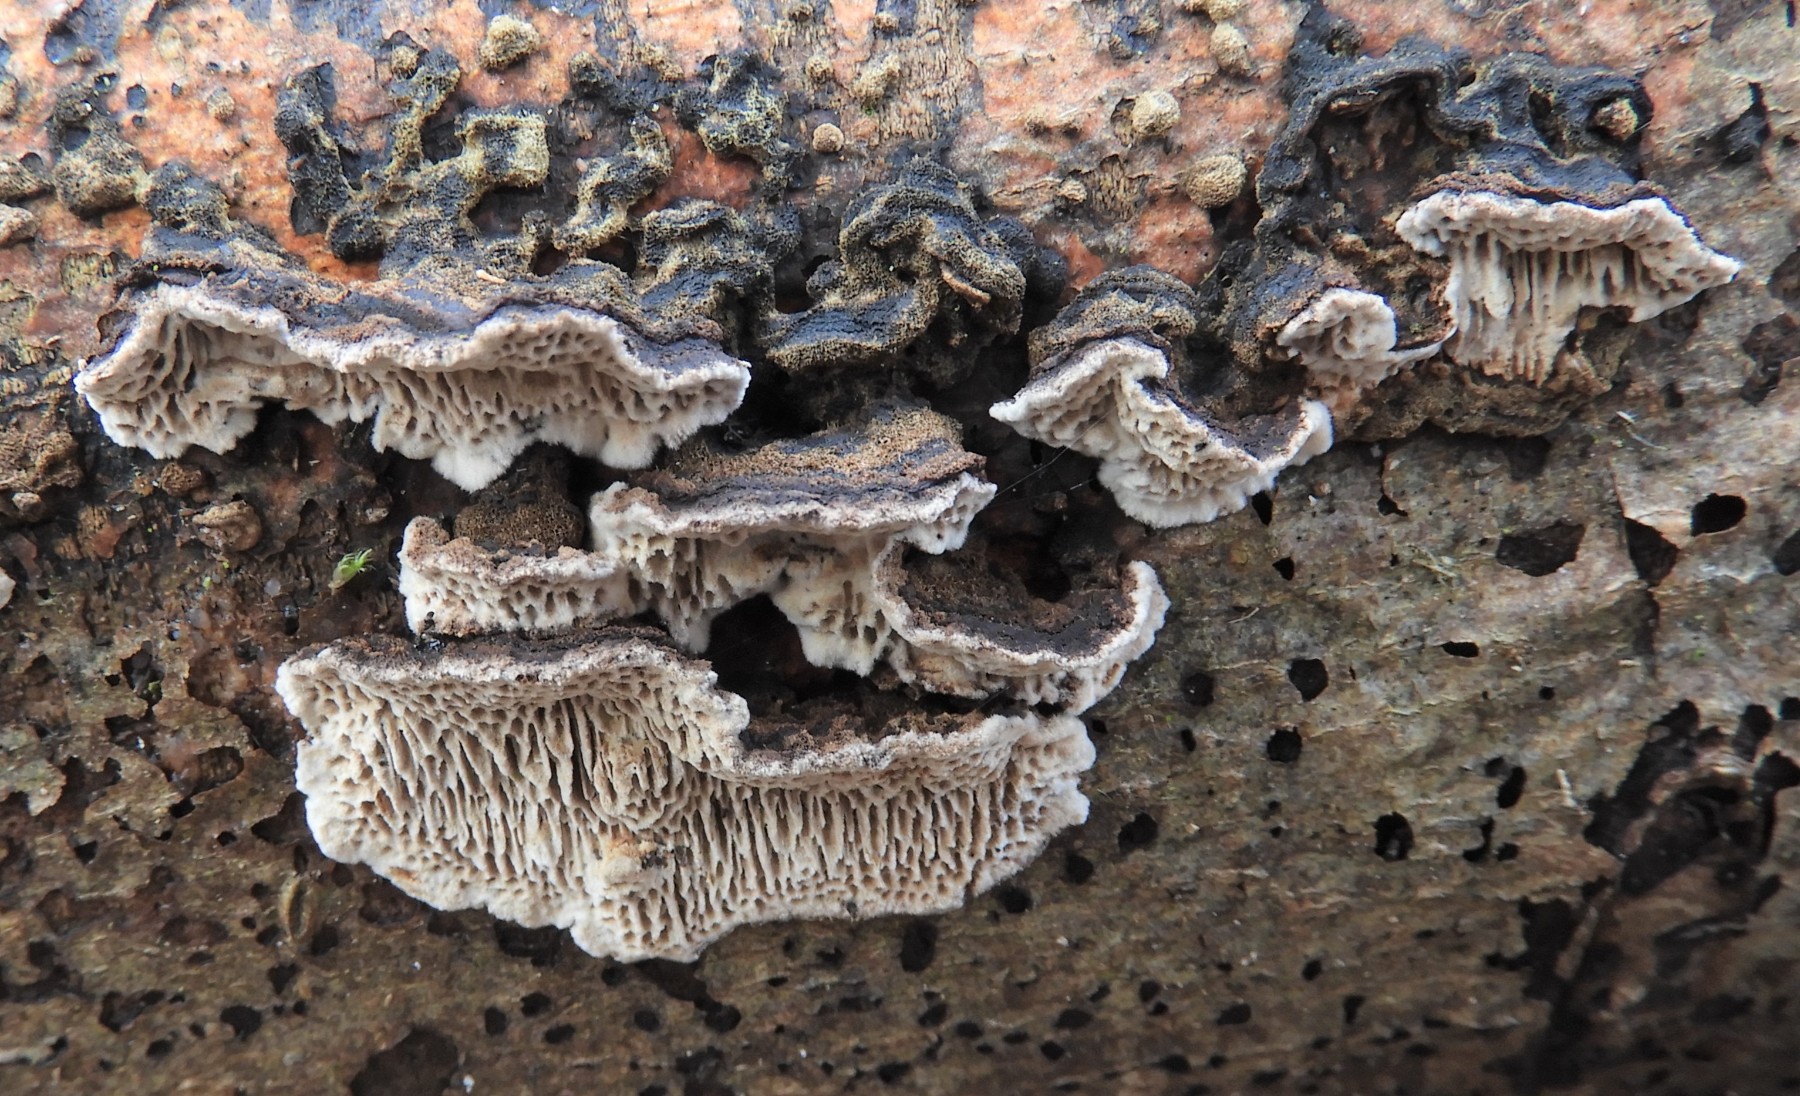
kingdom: Fungi
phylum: Basidiomycota
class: Agaricomycetes
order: Polyporales
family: Polyporaceae
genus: Podofomes
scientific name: Podofomes mollis
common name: blød begporesvamp
